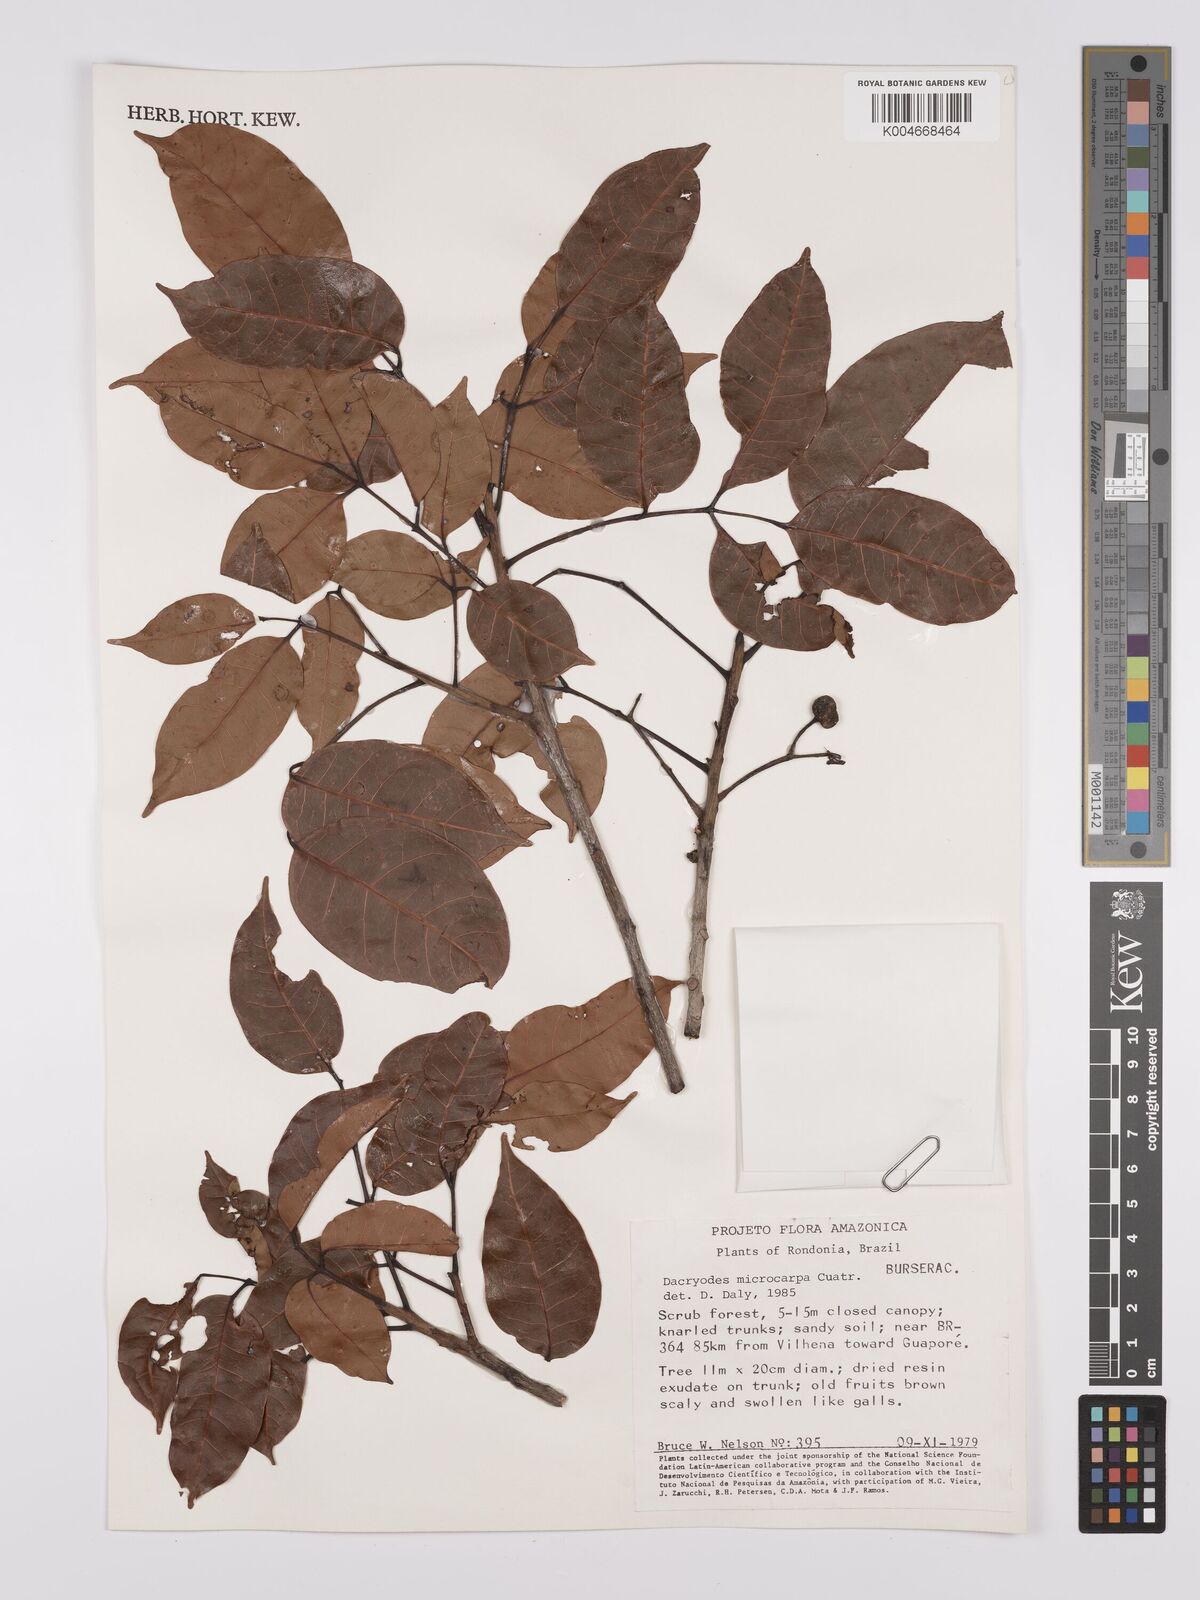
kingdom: Plantae
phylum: Tracheophyta
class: Magnoliopsida
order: Sapindales
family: Burseraceae
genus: Dacryodes
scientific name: Dacryodes microcarpa
